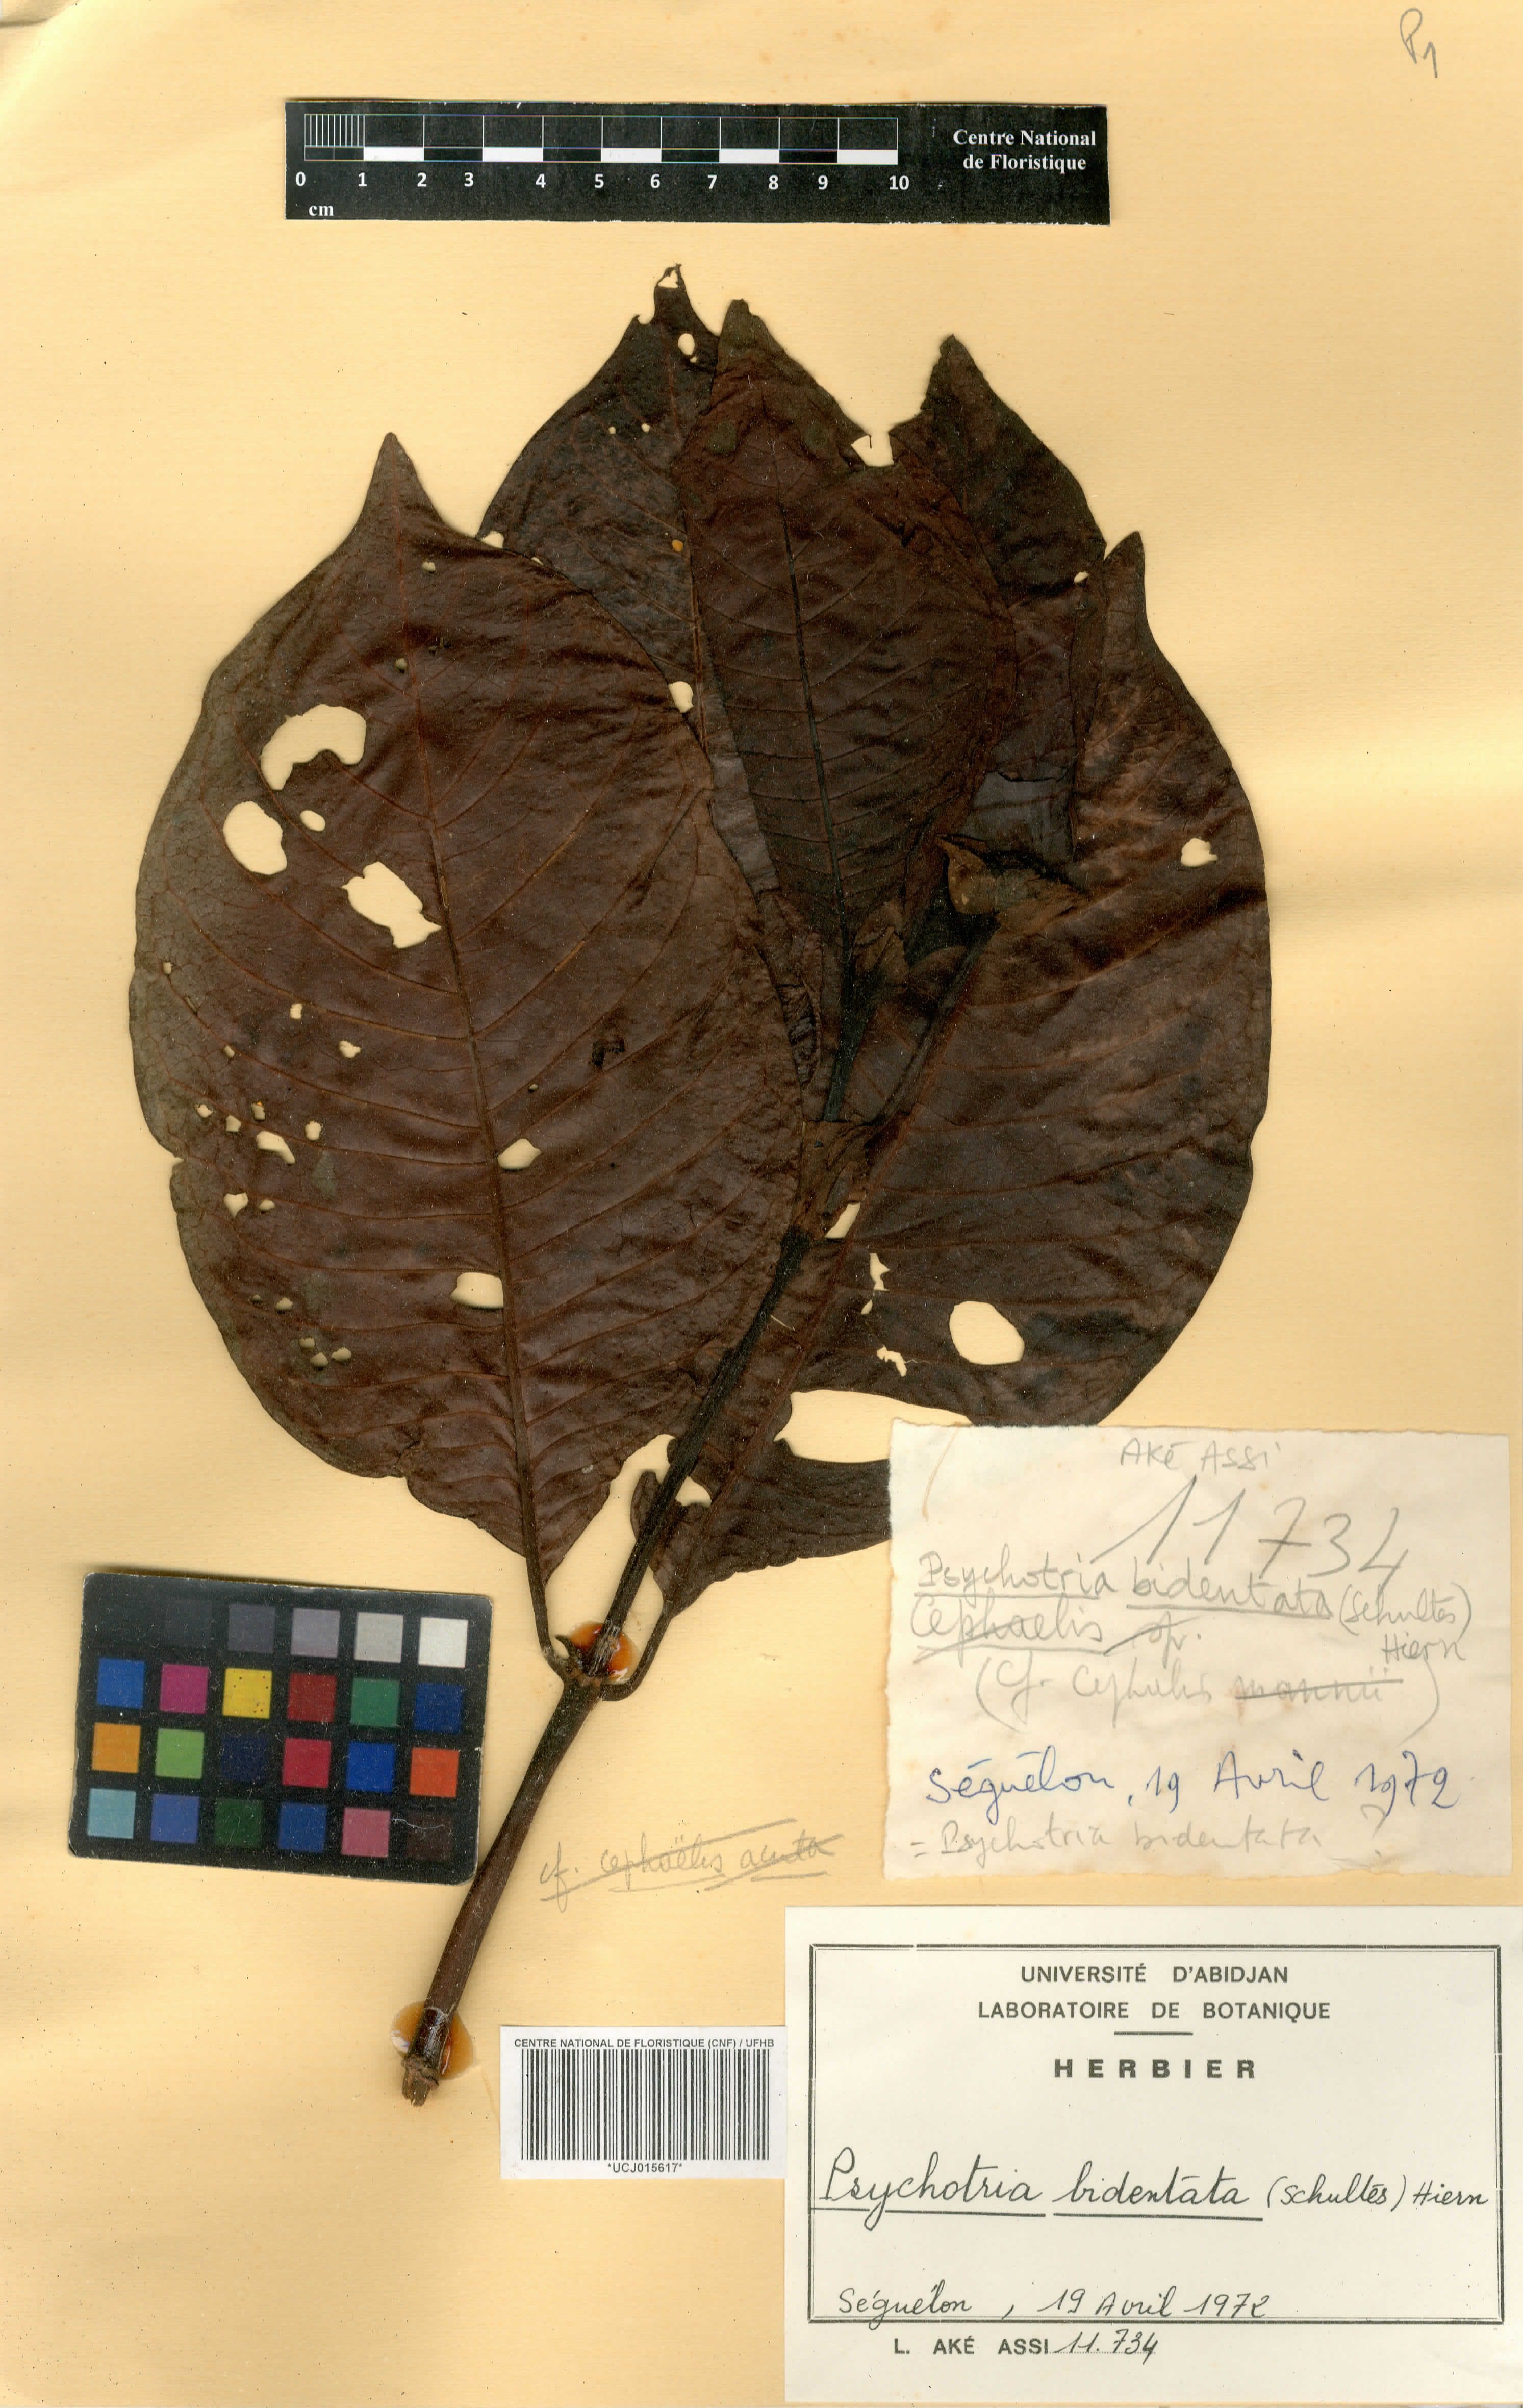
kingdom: Plantae
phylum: Tracheophyta
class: Magnoliopsida
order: Gentianales
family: Rubiaceae
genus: Psychotria
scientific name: Psychotria bidentata
